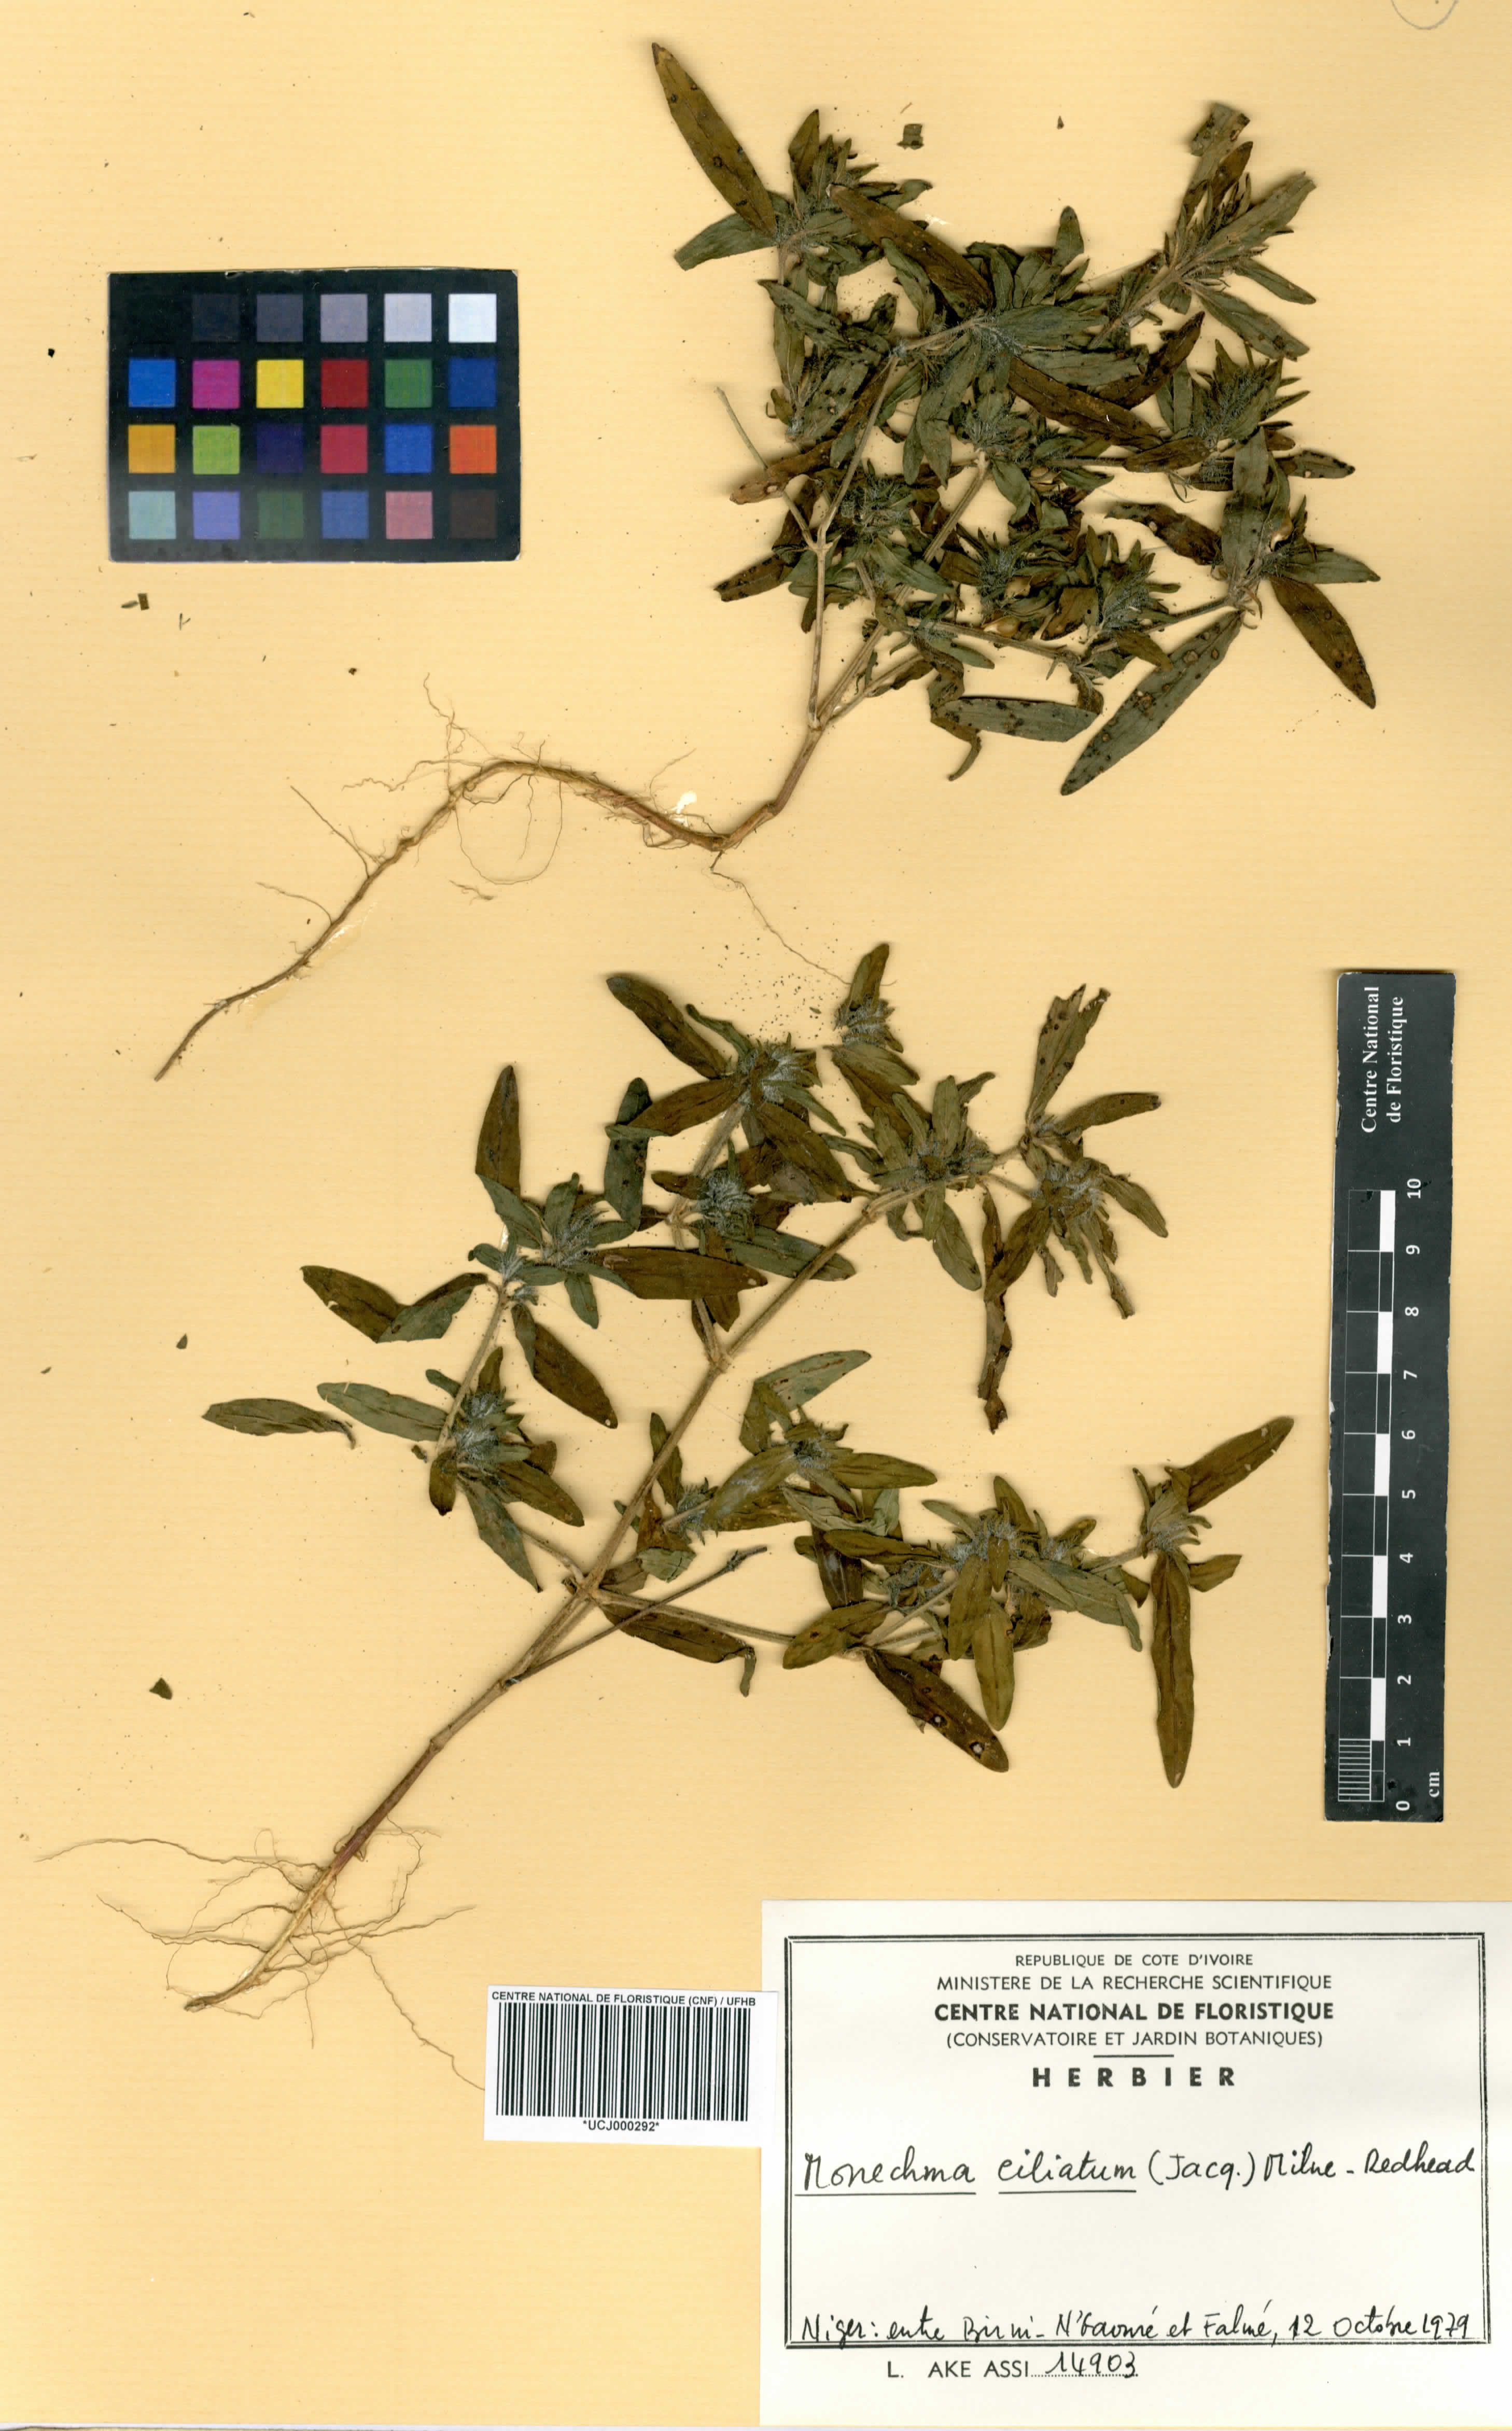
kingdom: Plantae
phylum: Tracheophyta
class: Magnoliopsida
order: Lamiales
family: Acanthaceae
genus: Monechma
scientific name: Monechma
